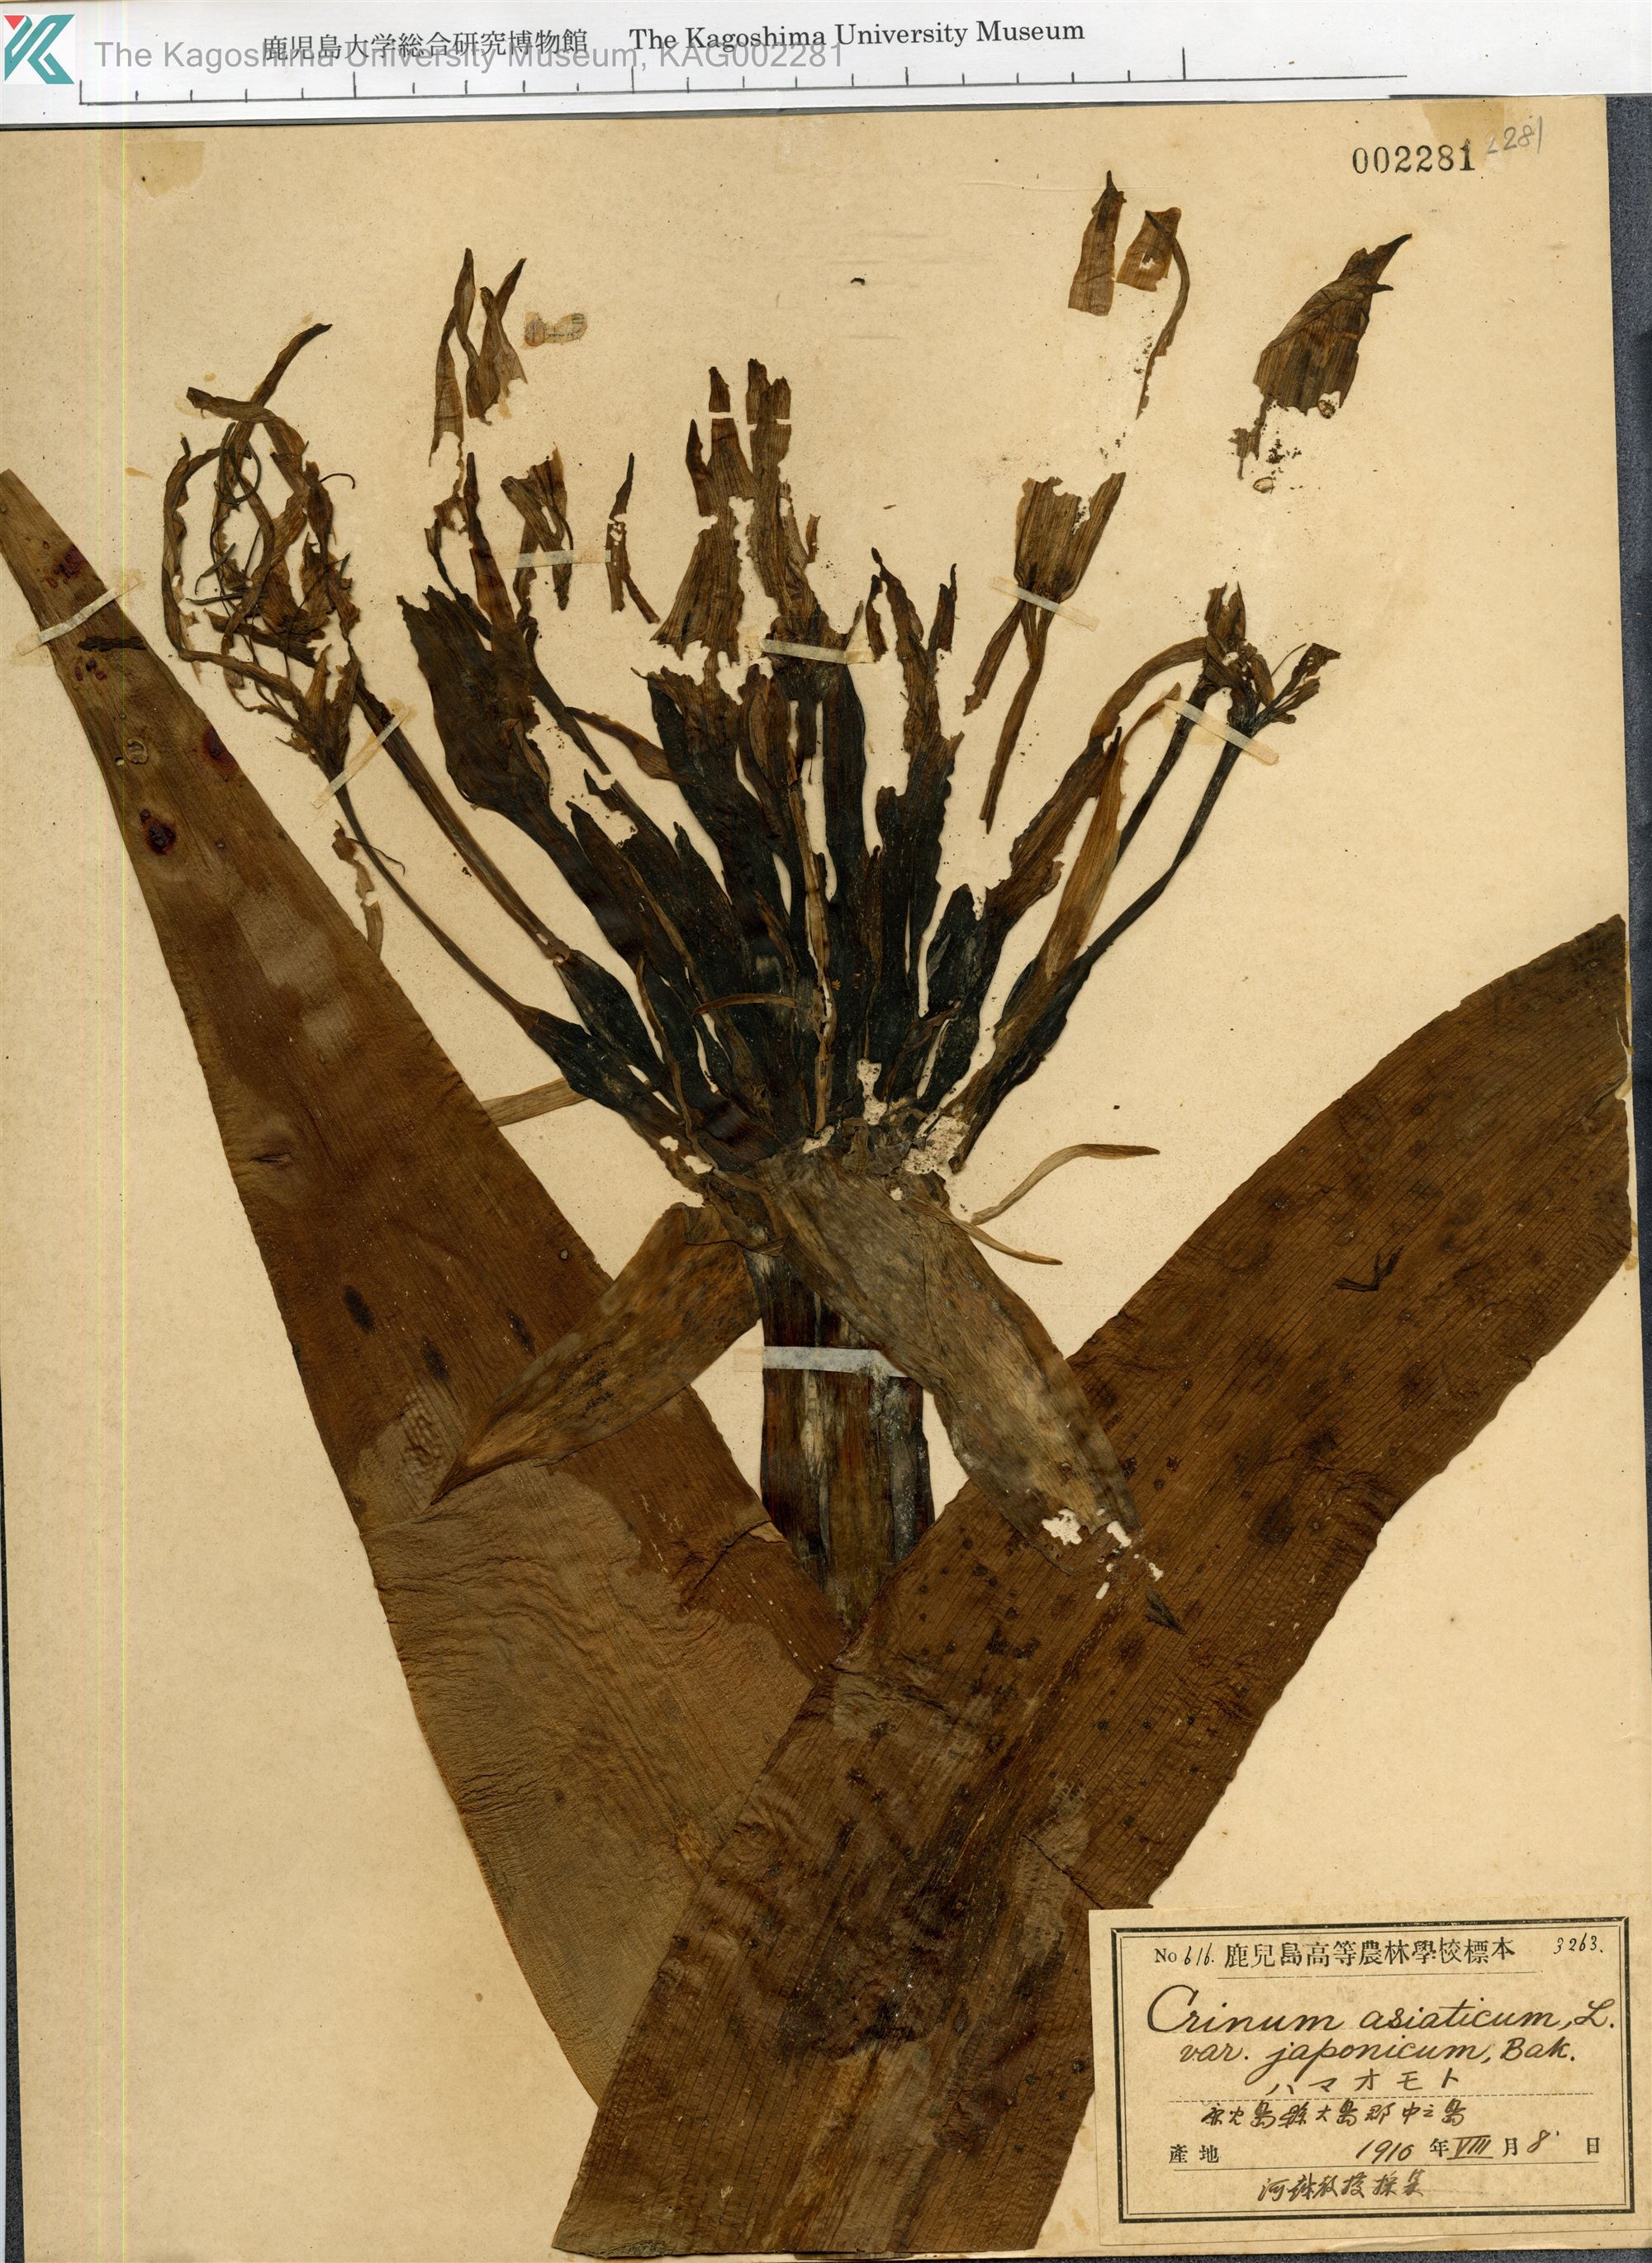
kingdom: Plantae
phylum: Tracheophyta
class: Liliopsida
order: Asparagales
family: Amaryllidaceae
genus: Crinum
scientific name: Crinum asiaticum
